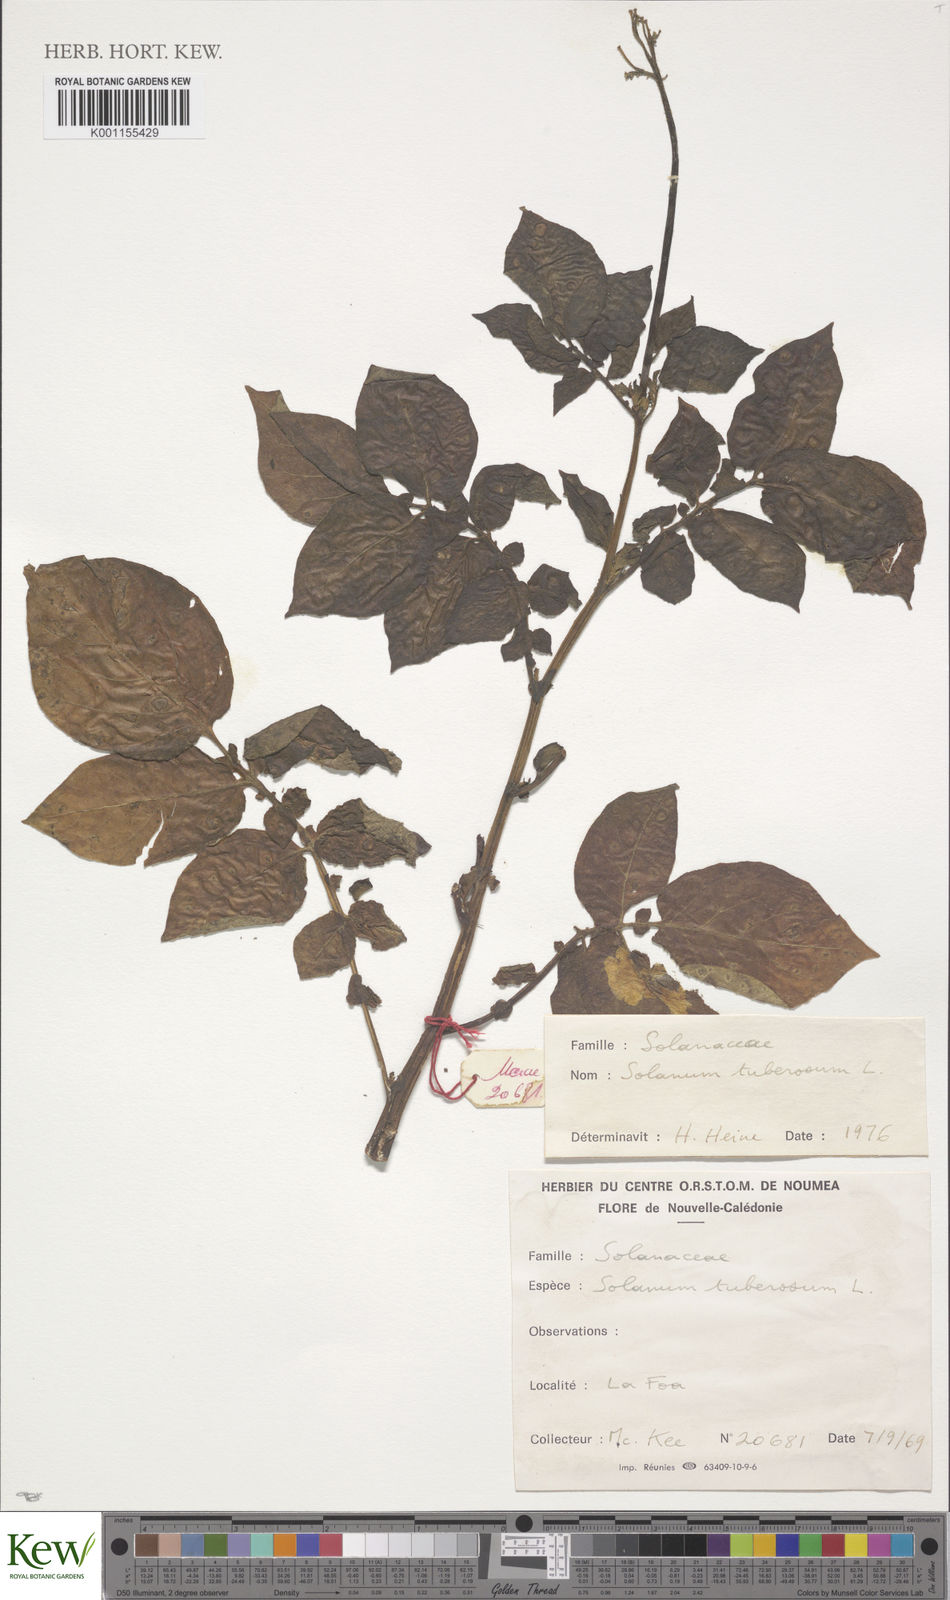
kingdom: Plantae
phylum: Tracheophyta
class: Magnoliopsida
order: Solanales
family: Solanaceae
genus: Solanum
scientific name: Solanum tuberosum
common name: Potato
